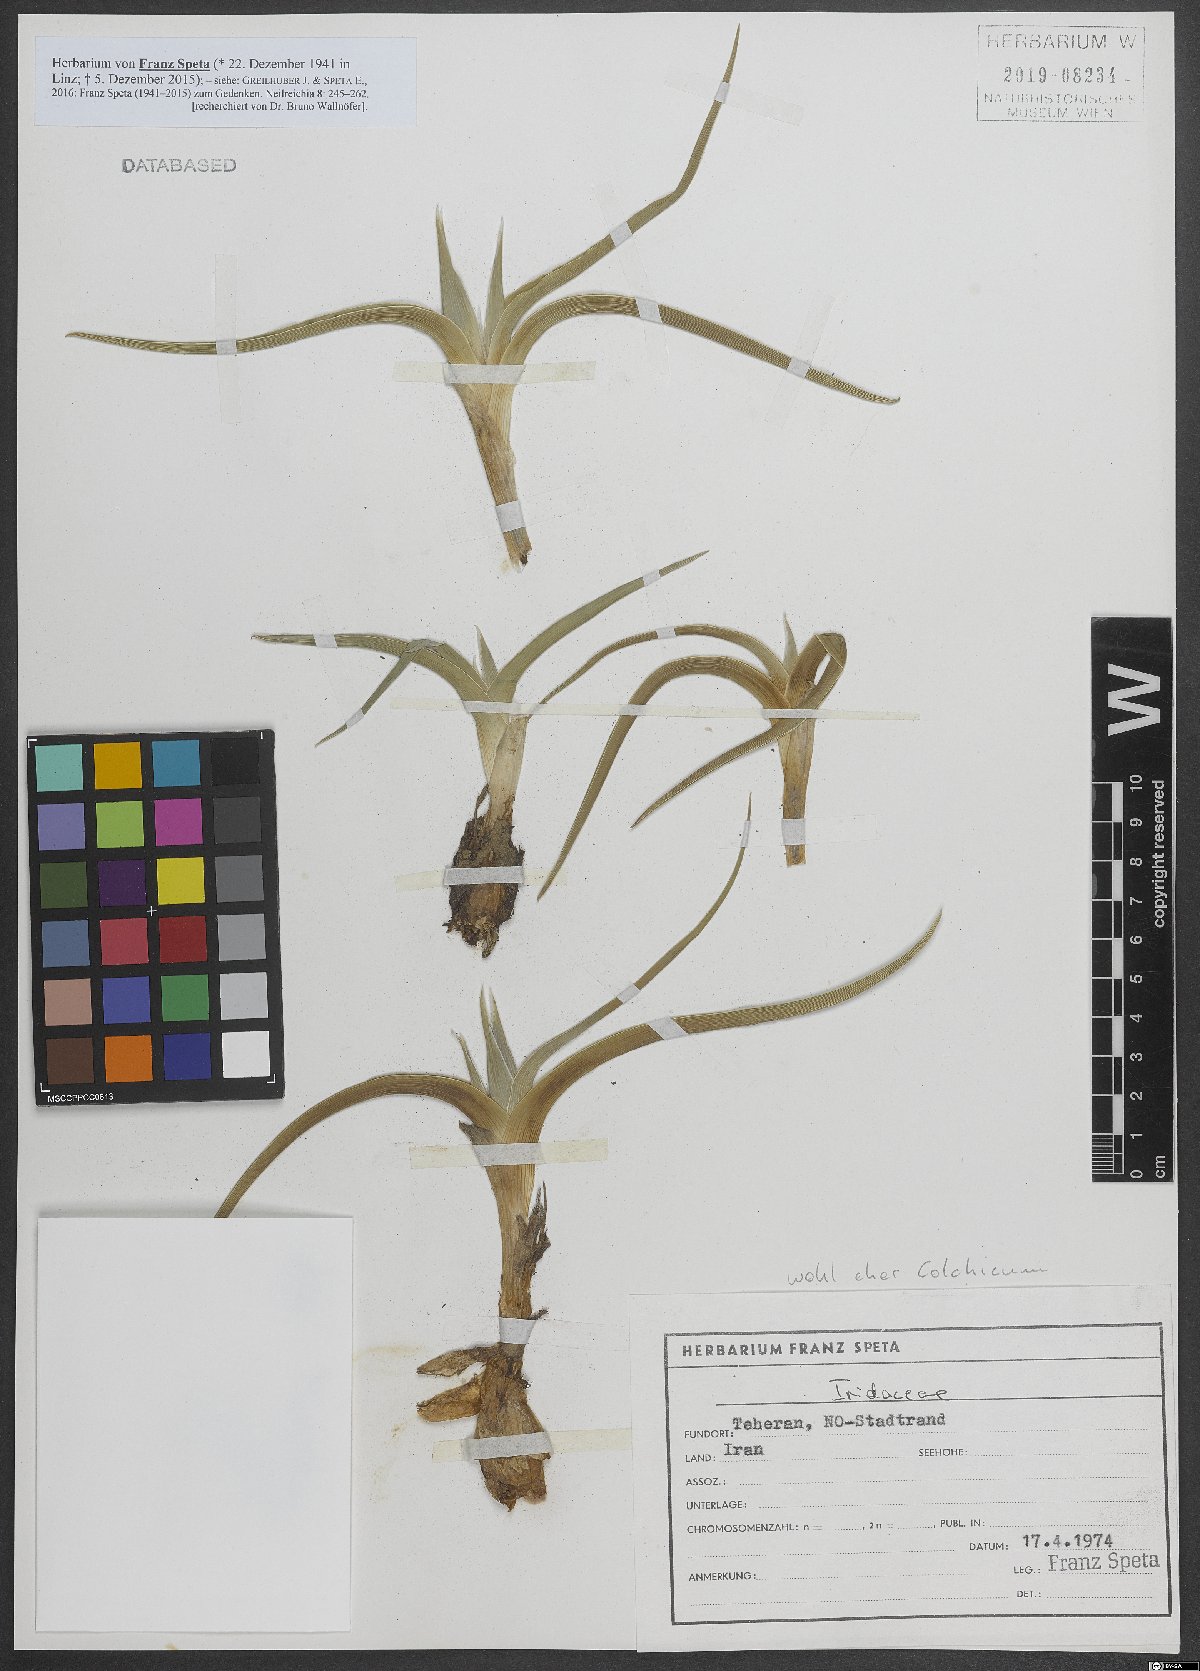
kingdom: Plantae
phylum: Tracheophyta
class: Liliopsida
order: Liliales
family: Colchicaceae
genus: Colchicum
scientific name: Colchicum
